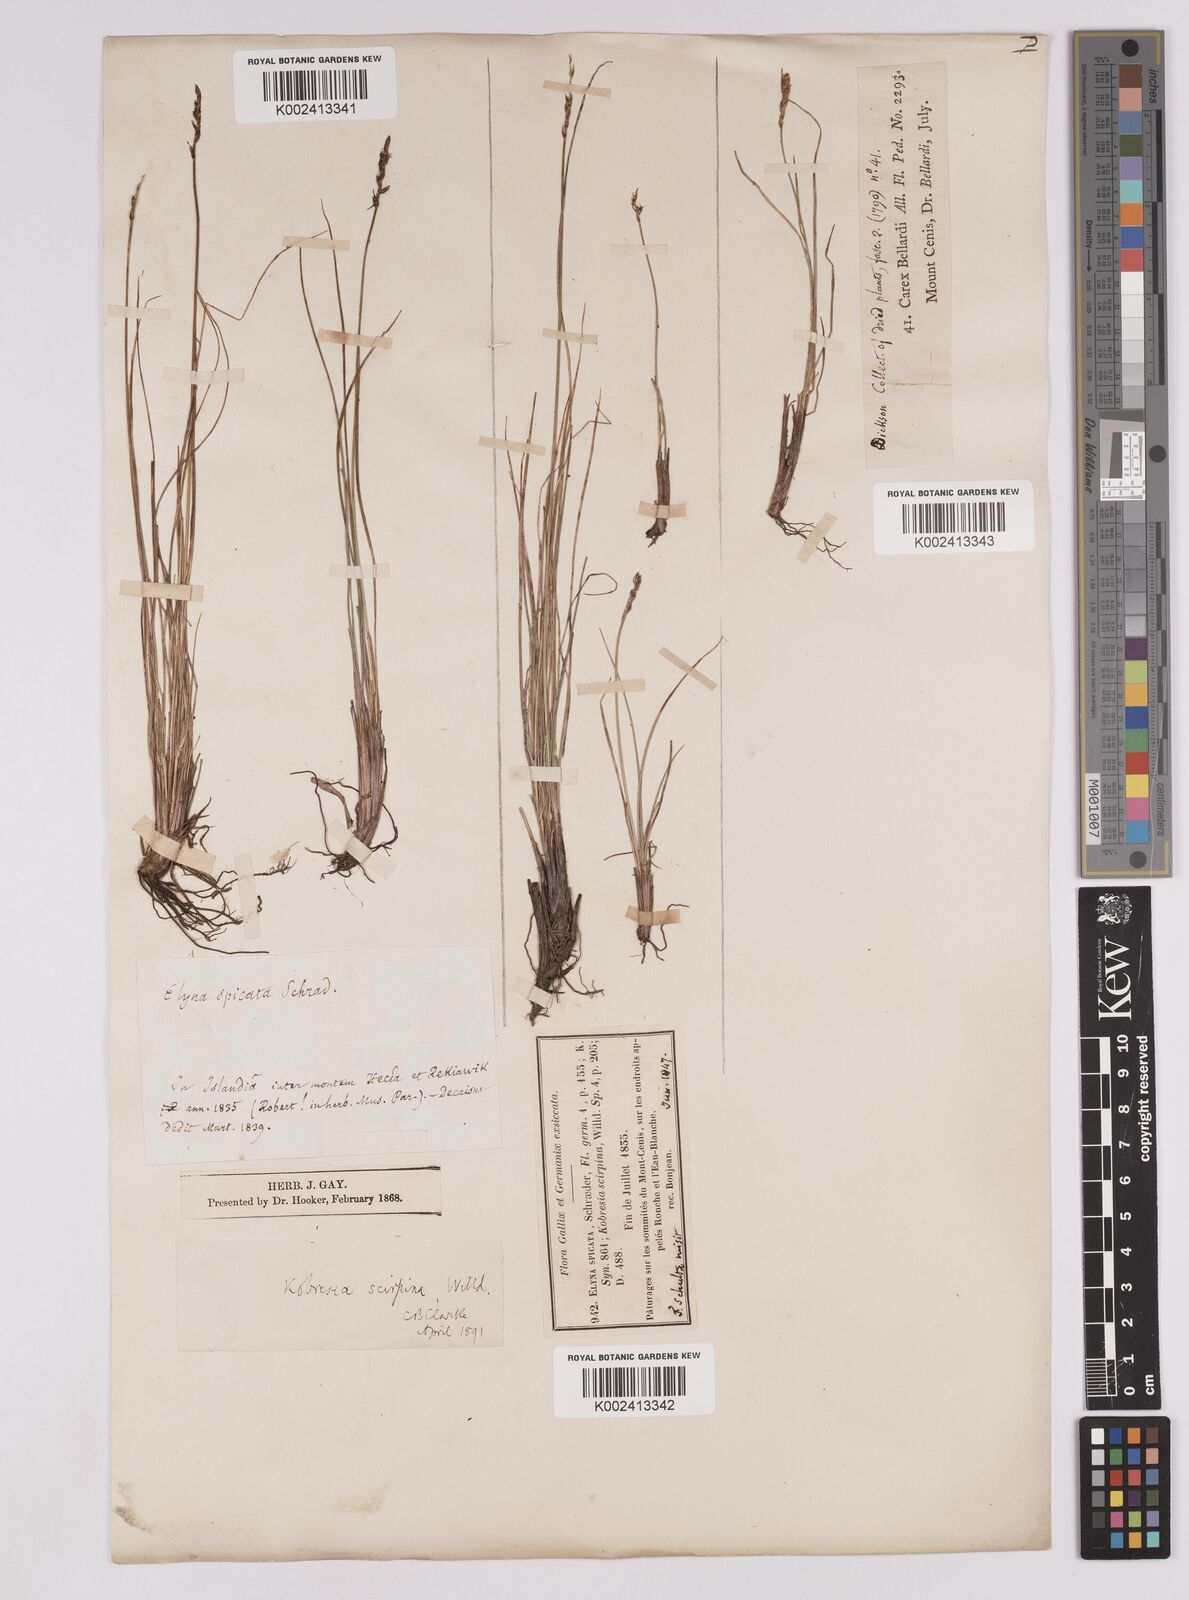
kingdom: Plantae
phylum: Tracheophyta
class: Liliopsida
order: Poales
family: Cyperaceae
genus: Carex
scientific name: Carex myosuroides
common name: Bellard's bog sedge
